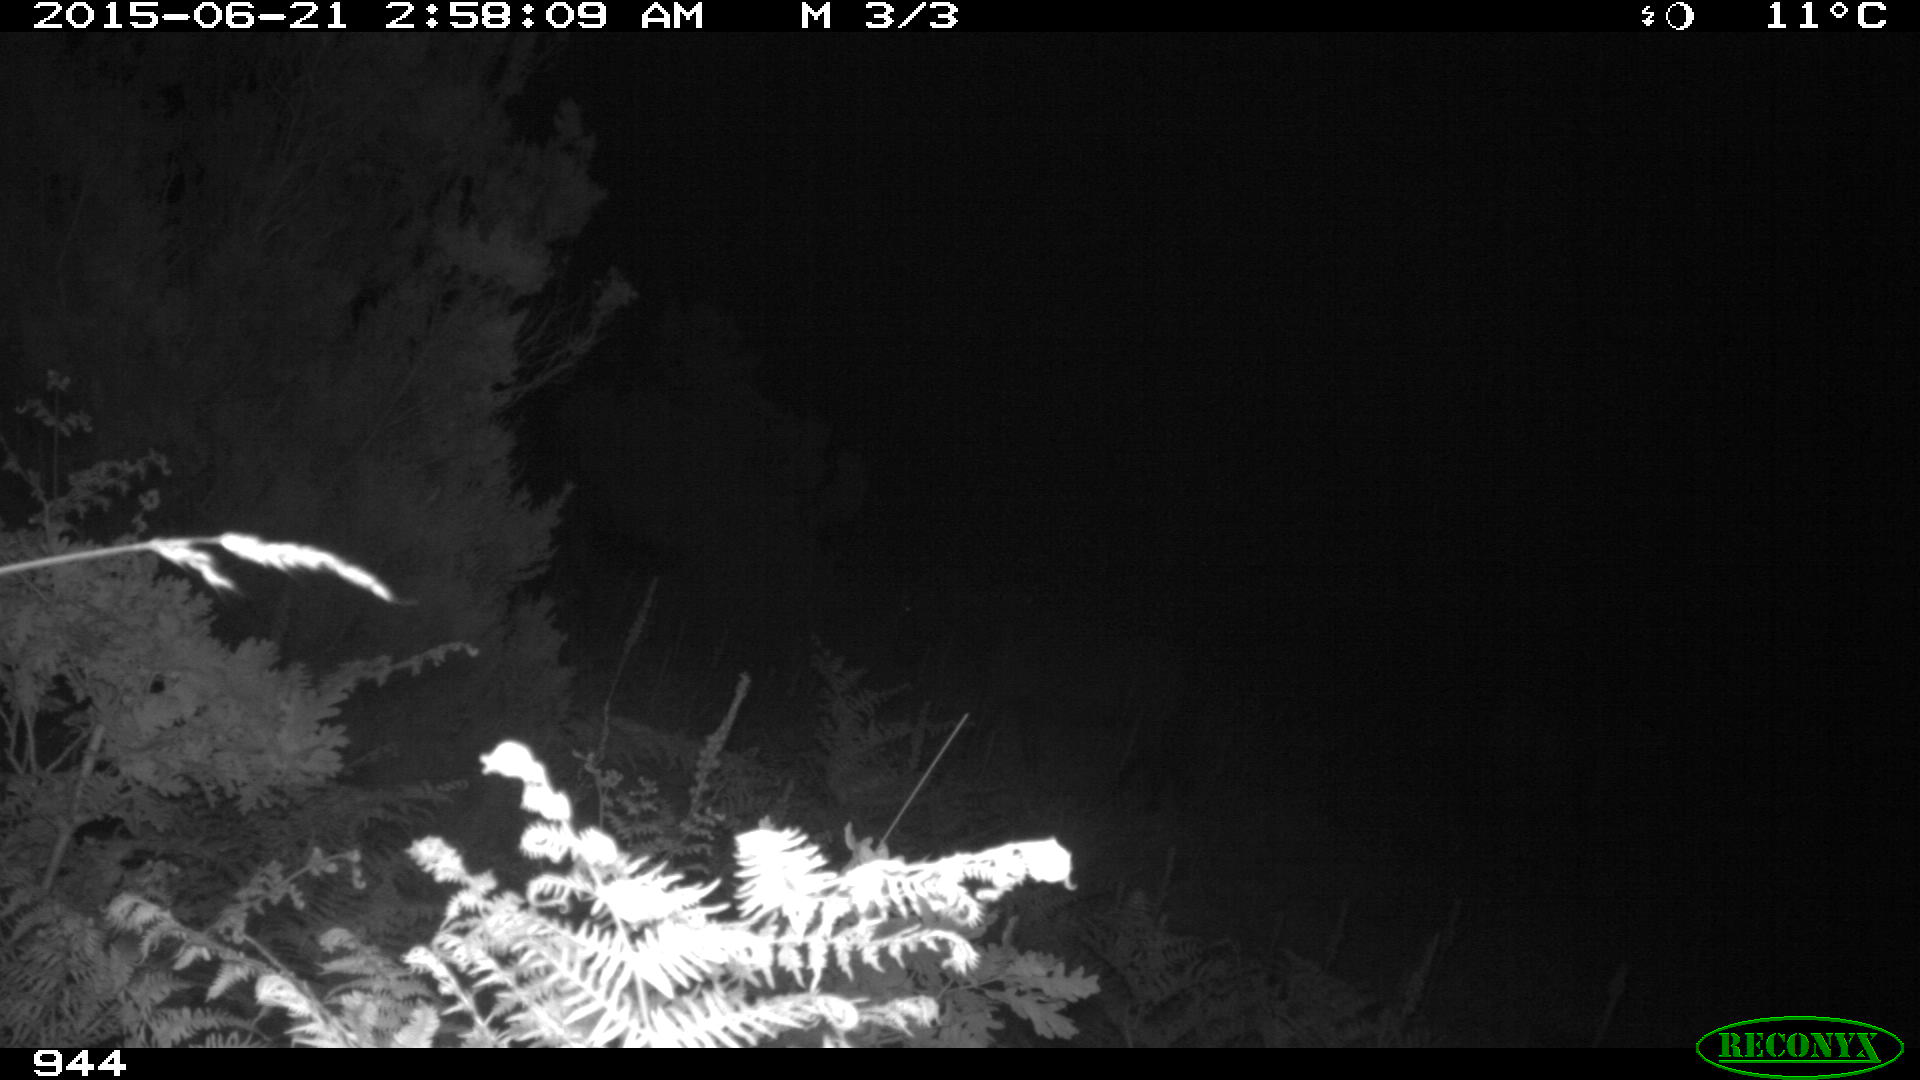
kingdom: Animalia
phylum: Chordata
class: Mammalia
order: Perissodactyla
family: Equidae
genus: Equus
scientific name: Equus caballus
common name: Horse
